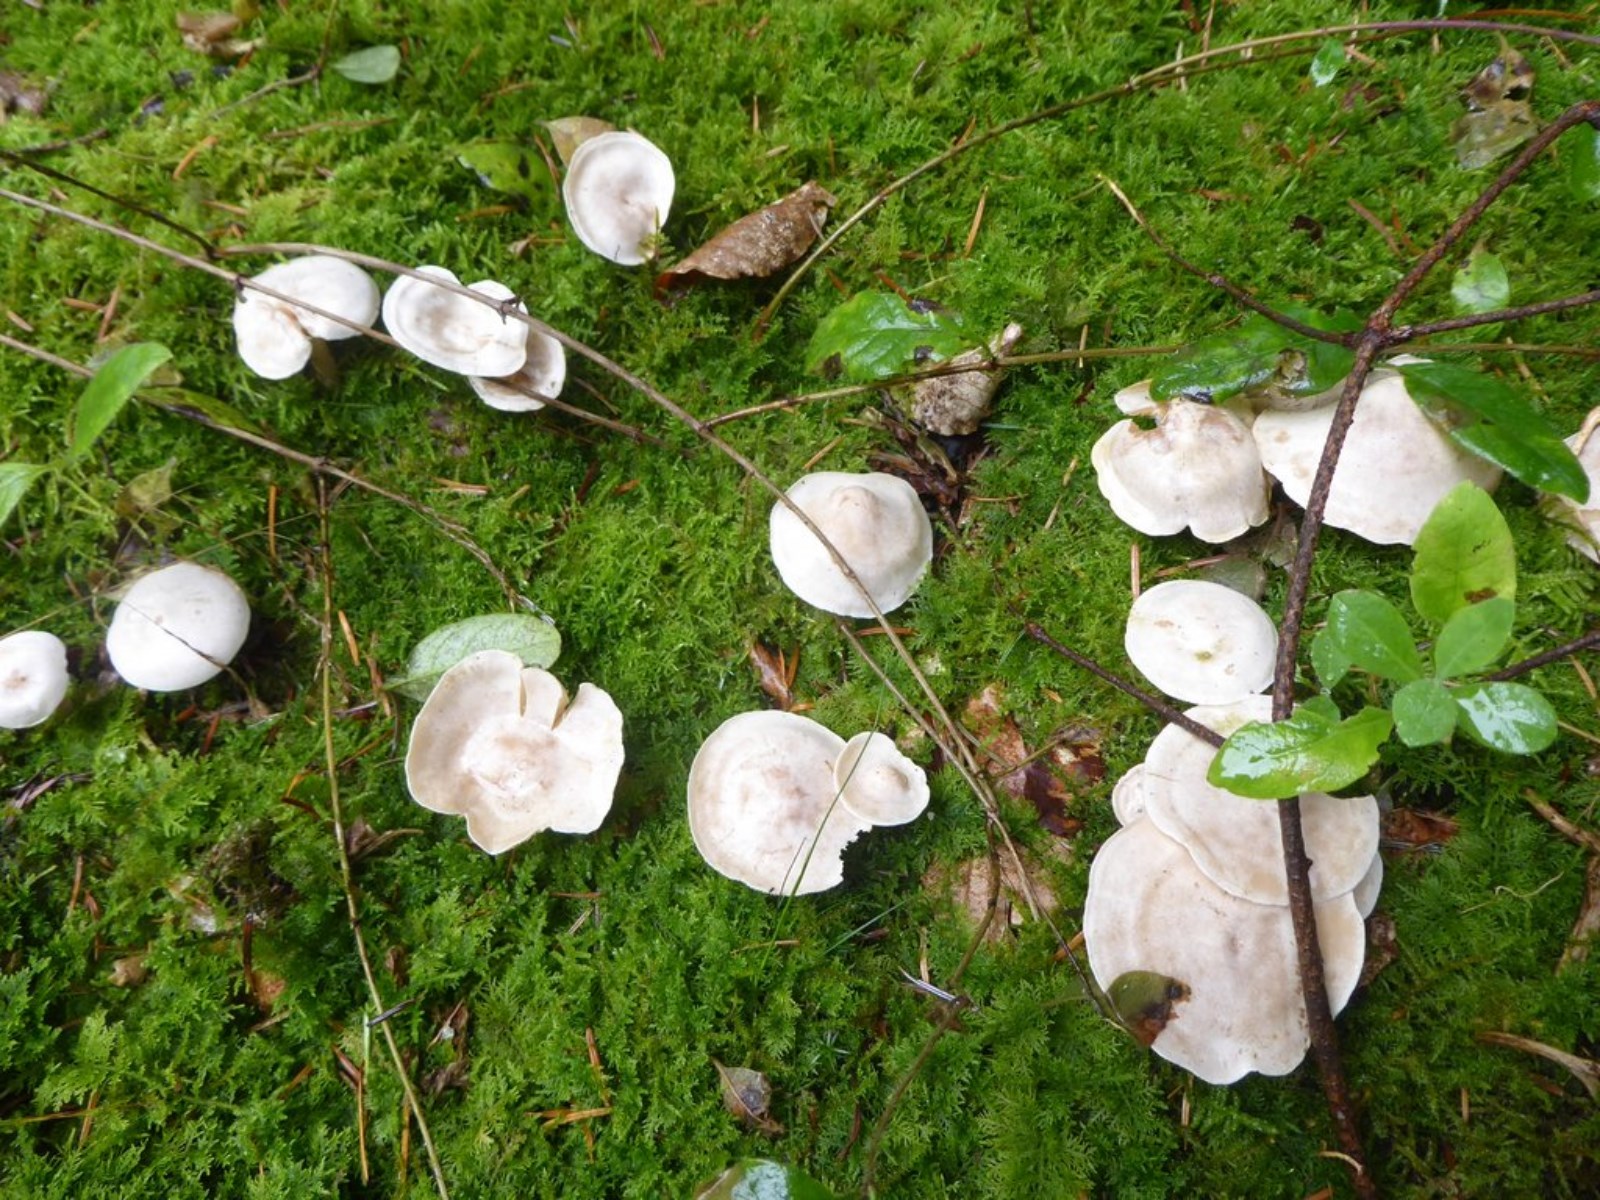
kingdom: Fungi
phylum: Basidiomycota
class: Agaricomycetes
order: Agaricales
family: Tricholomataceae
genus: Clitocybe
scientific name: Clitocybe
